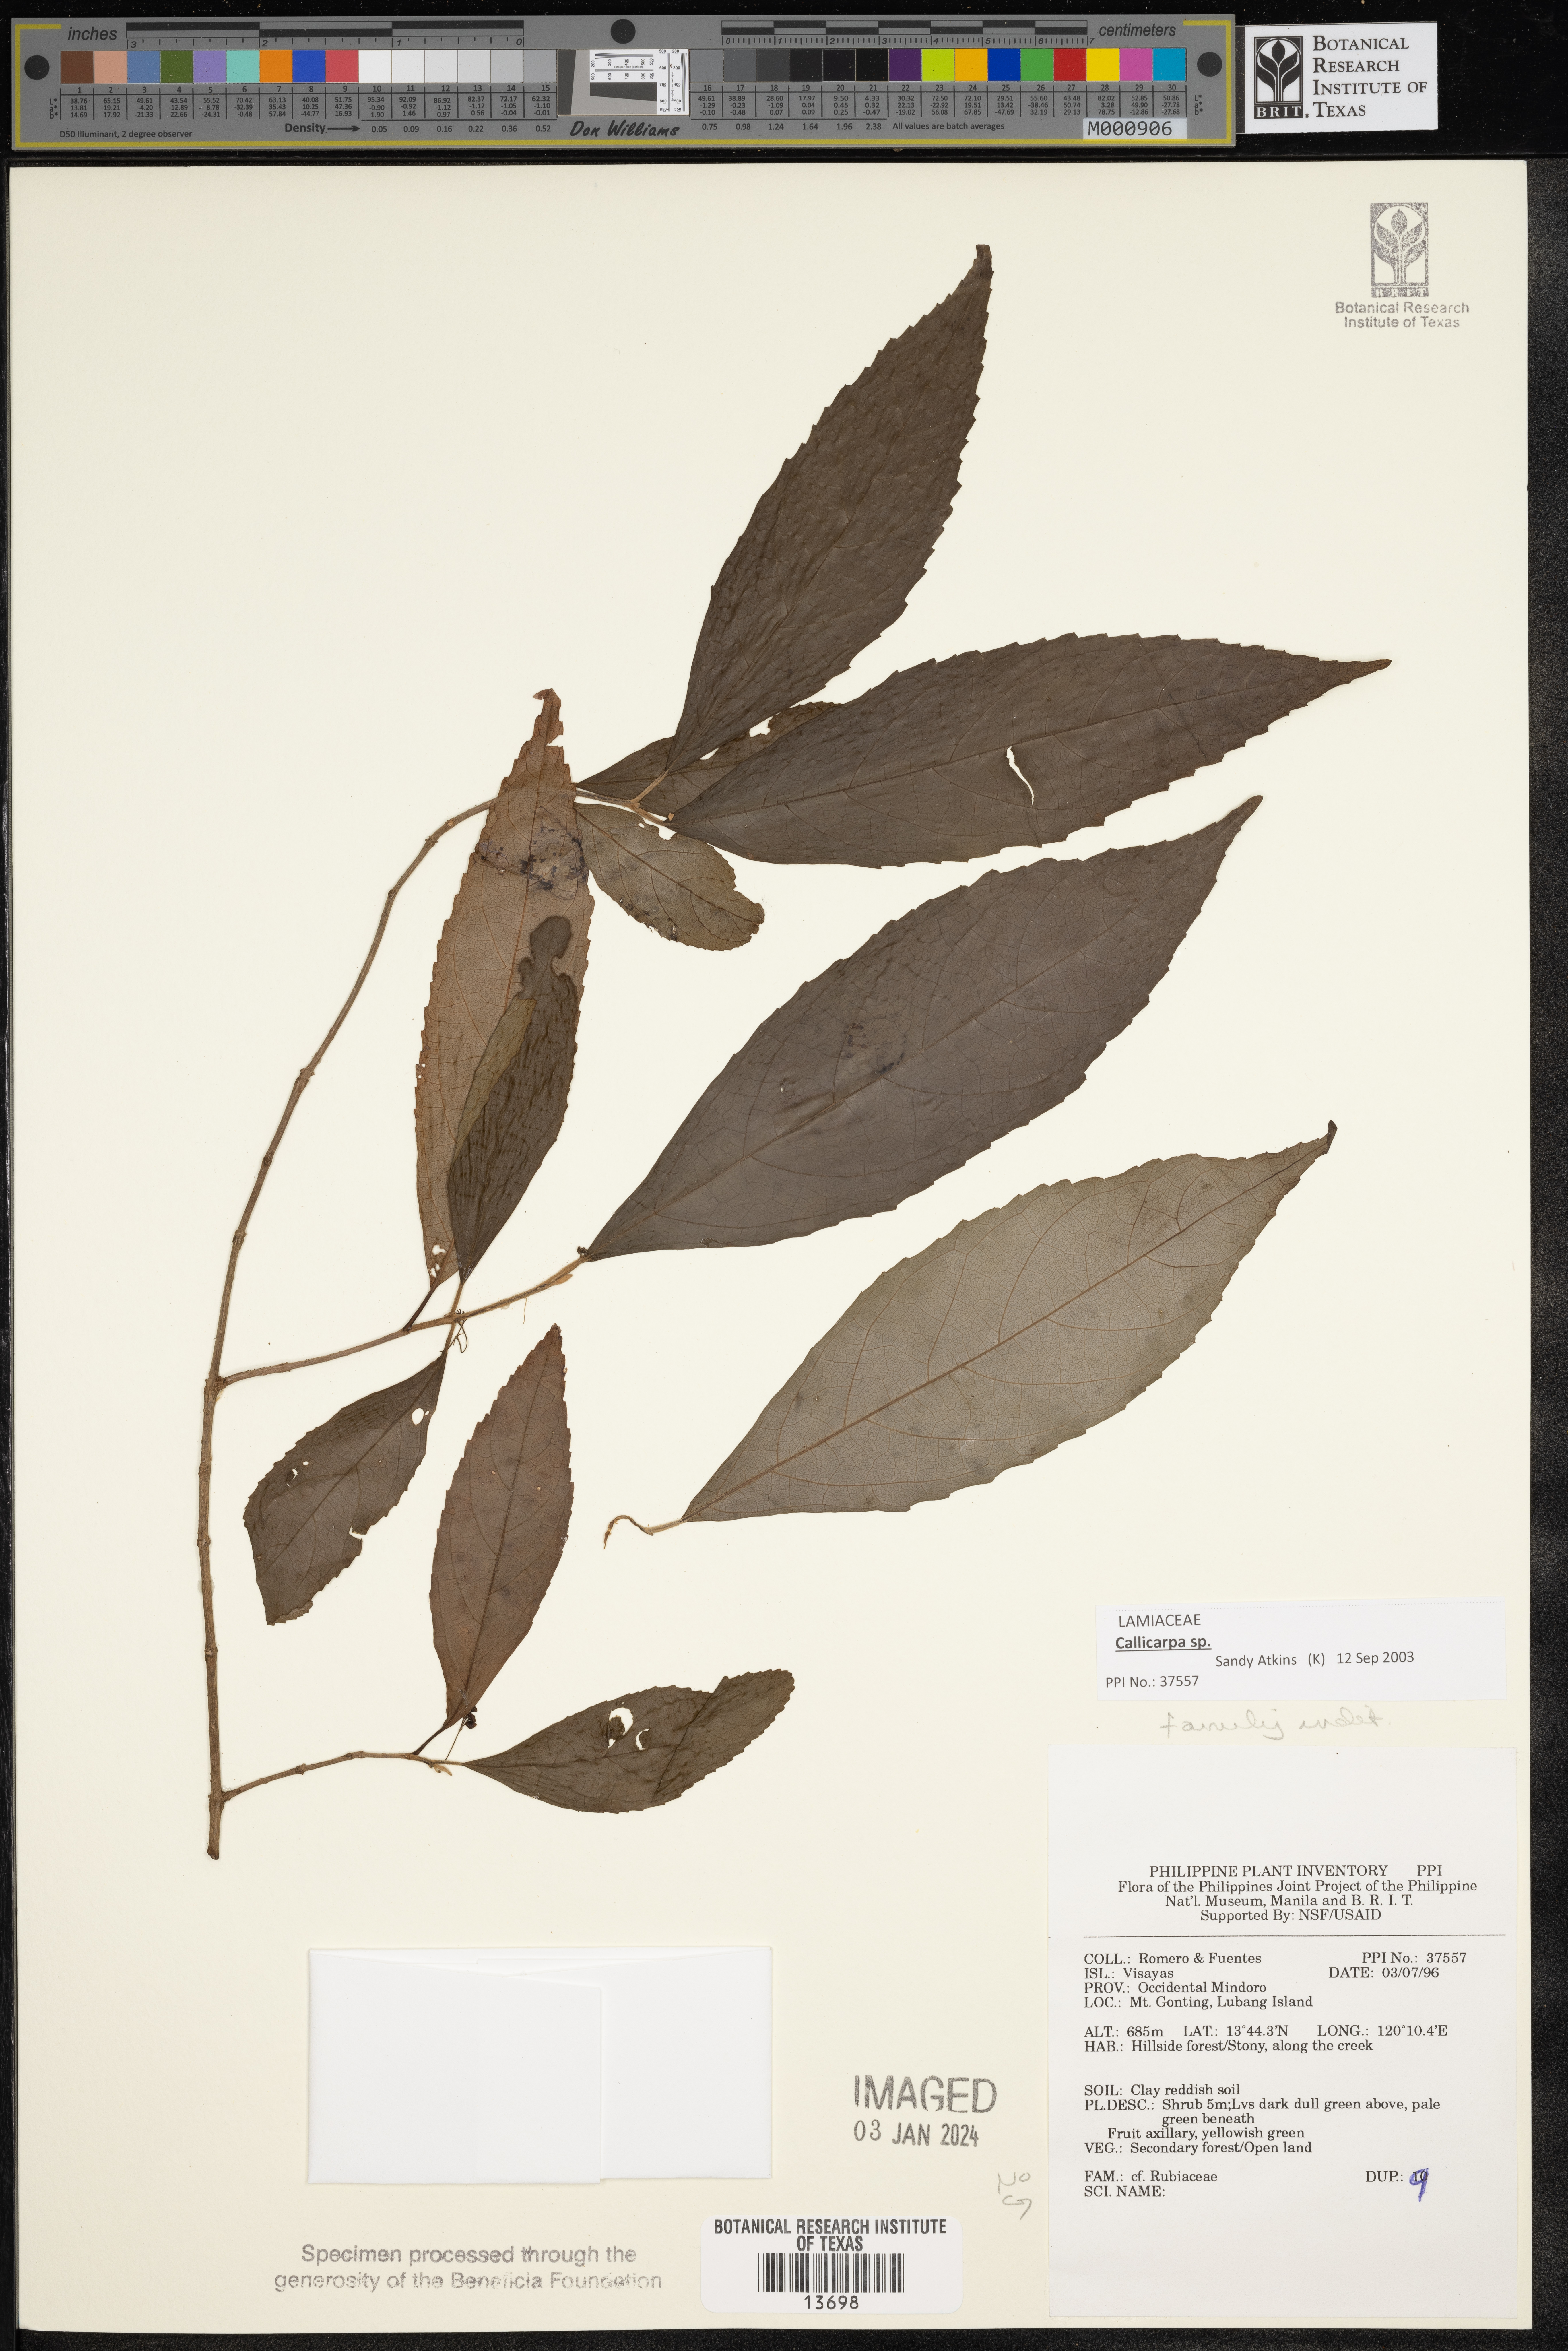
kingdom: Plantae
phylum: Tracheophyta
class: Magnoliopsida
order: Lamiales
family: Lamiaceae
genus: Callicarpa
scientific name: Callicarpa
